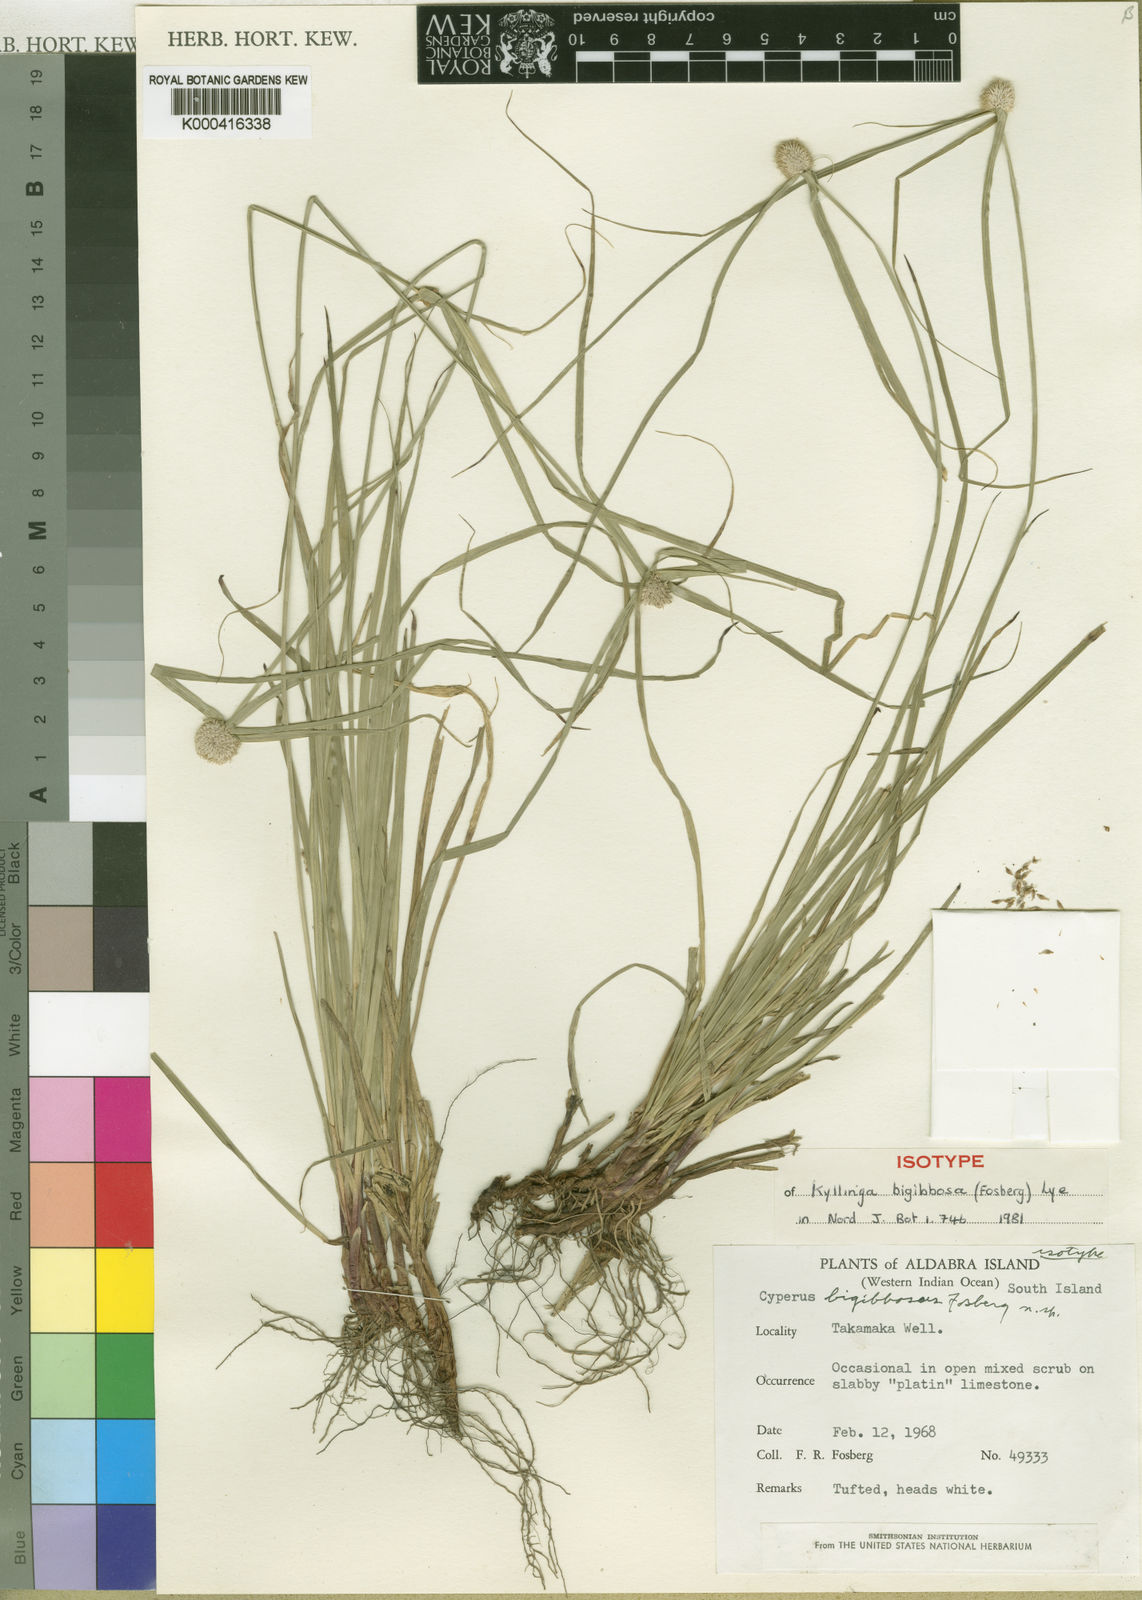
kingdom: Plantae
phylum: Tracheophyta
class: Liliopsida
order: Poales
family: Cyperaceae
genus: Cyperus
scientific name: Cyperus bigibbosa
